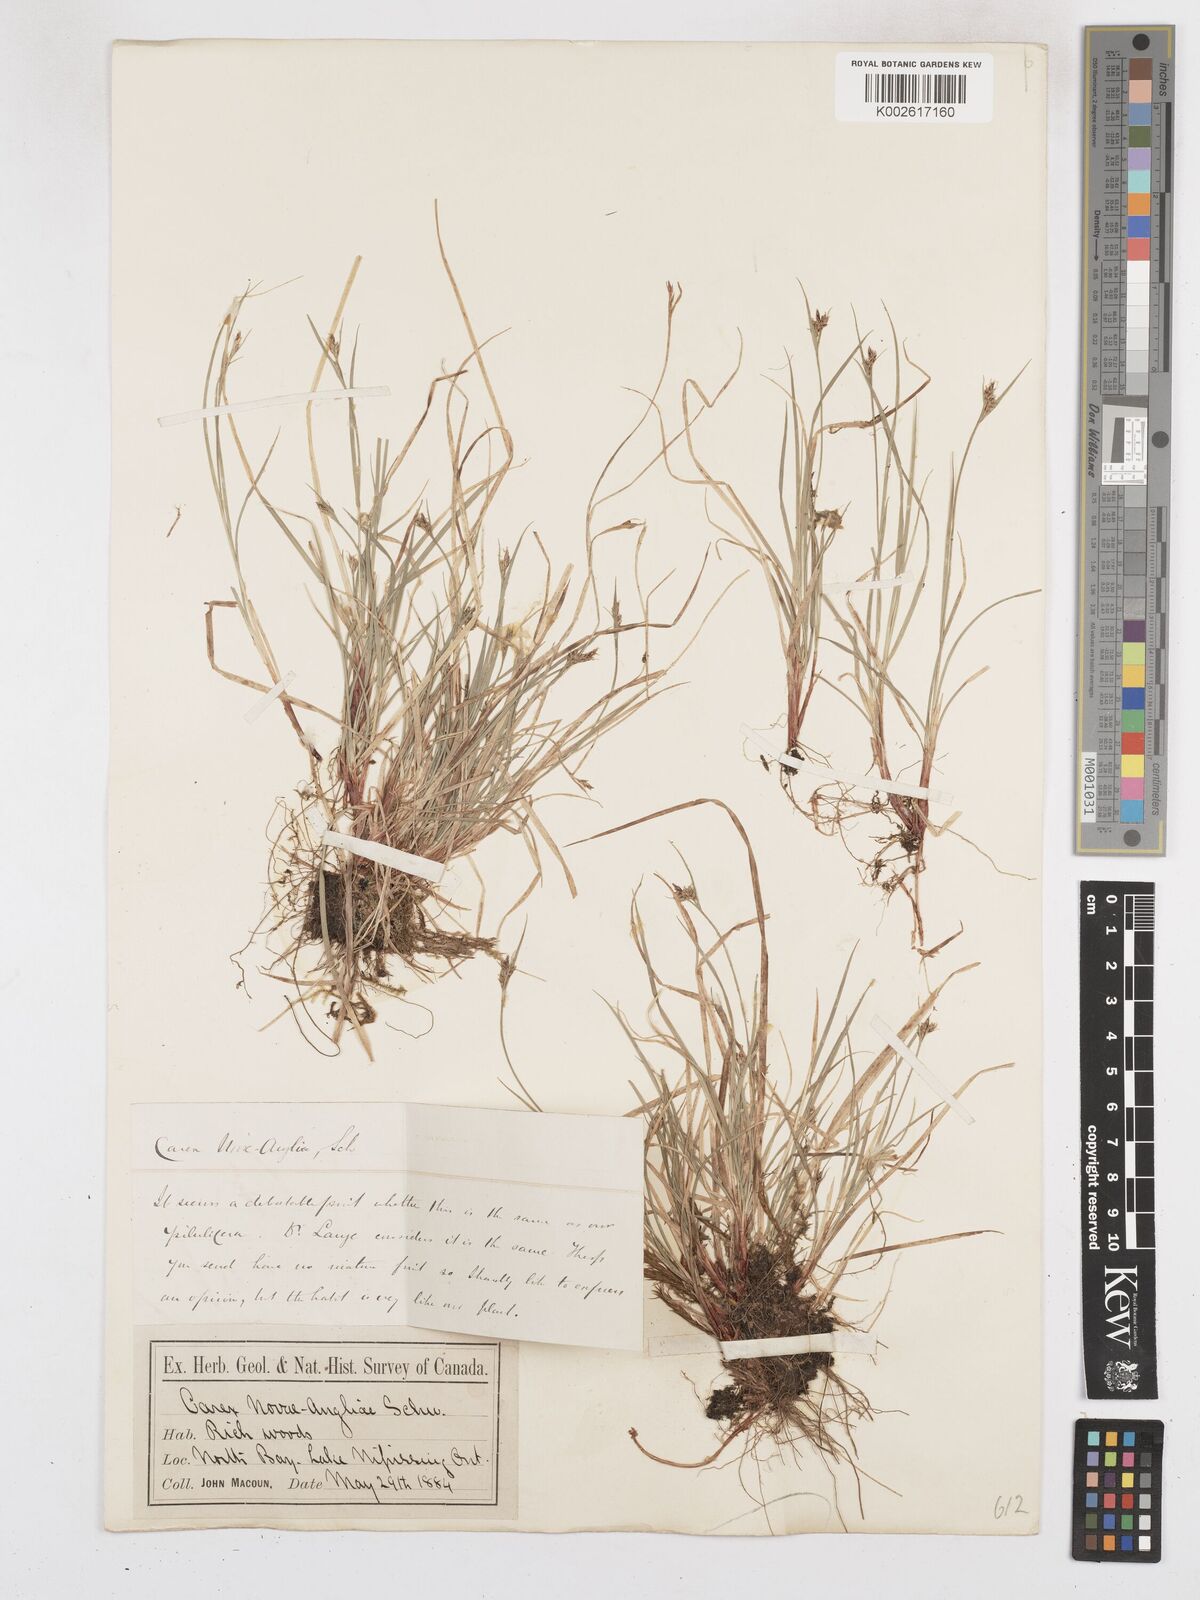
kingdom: Plantae
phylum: Tracheophyta
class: Liliopsida
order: Poales
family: Cyperaceae
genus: Carex
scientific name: Carex novae-angliae
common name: New england sedge
